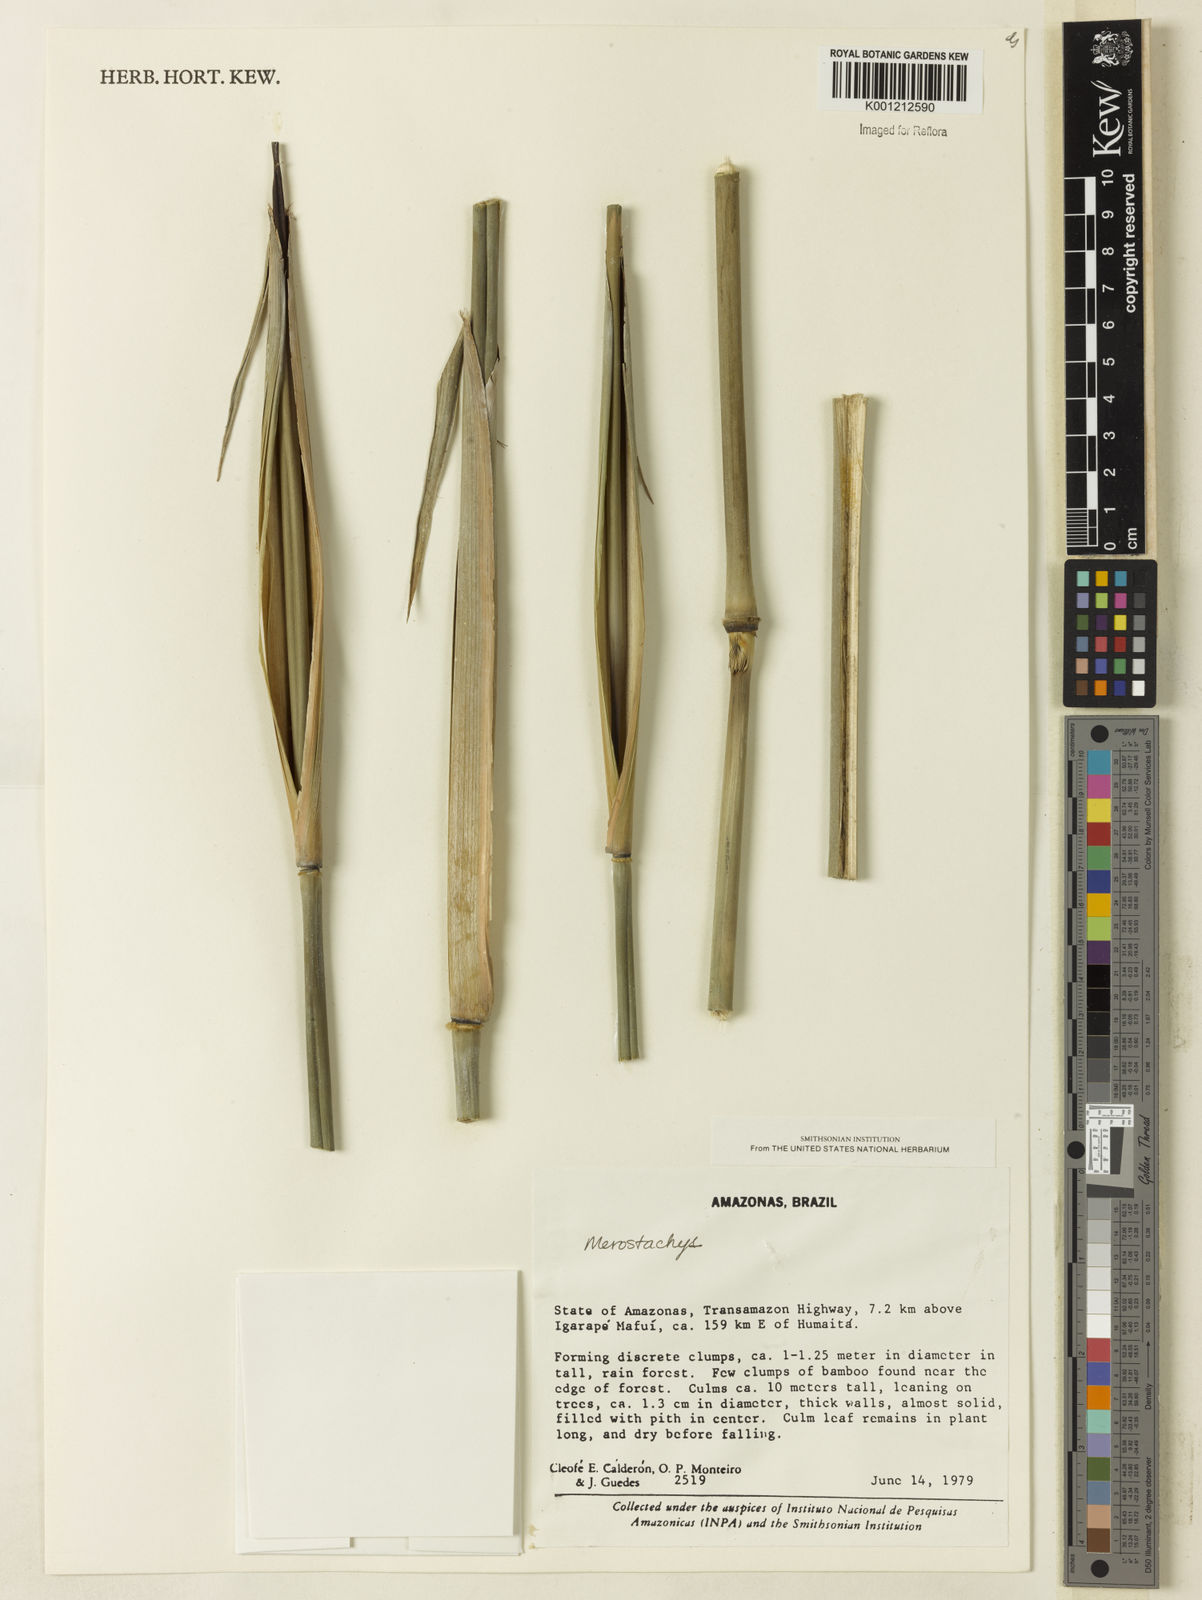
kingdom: Plantae
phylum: Tracheophyta
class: Liliopsida
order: Poales
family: Poaceae
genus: Merostachys
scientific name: Merostachys
